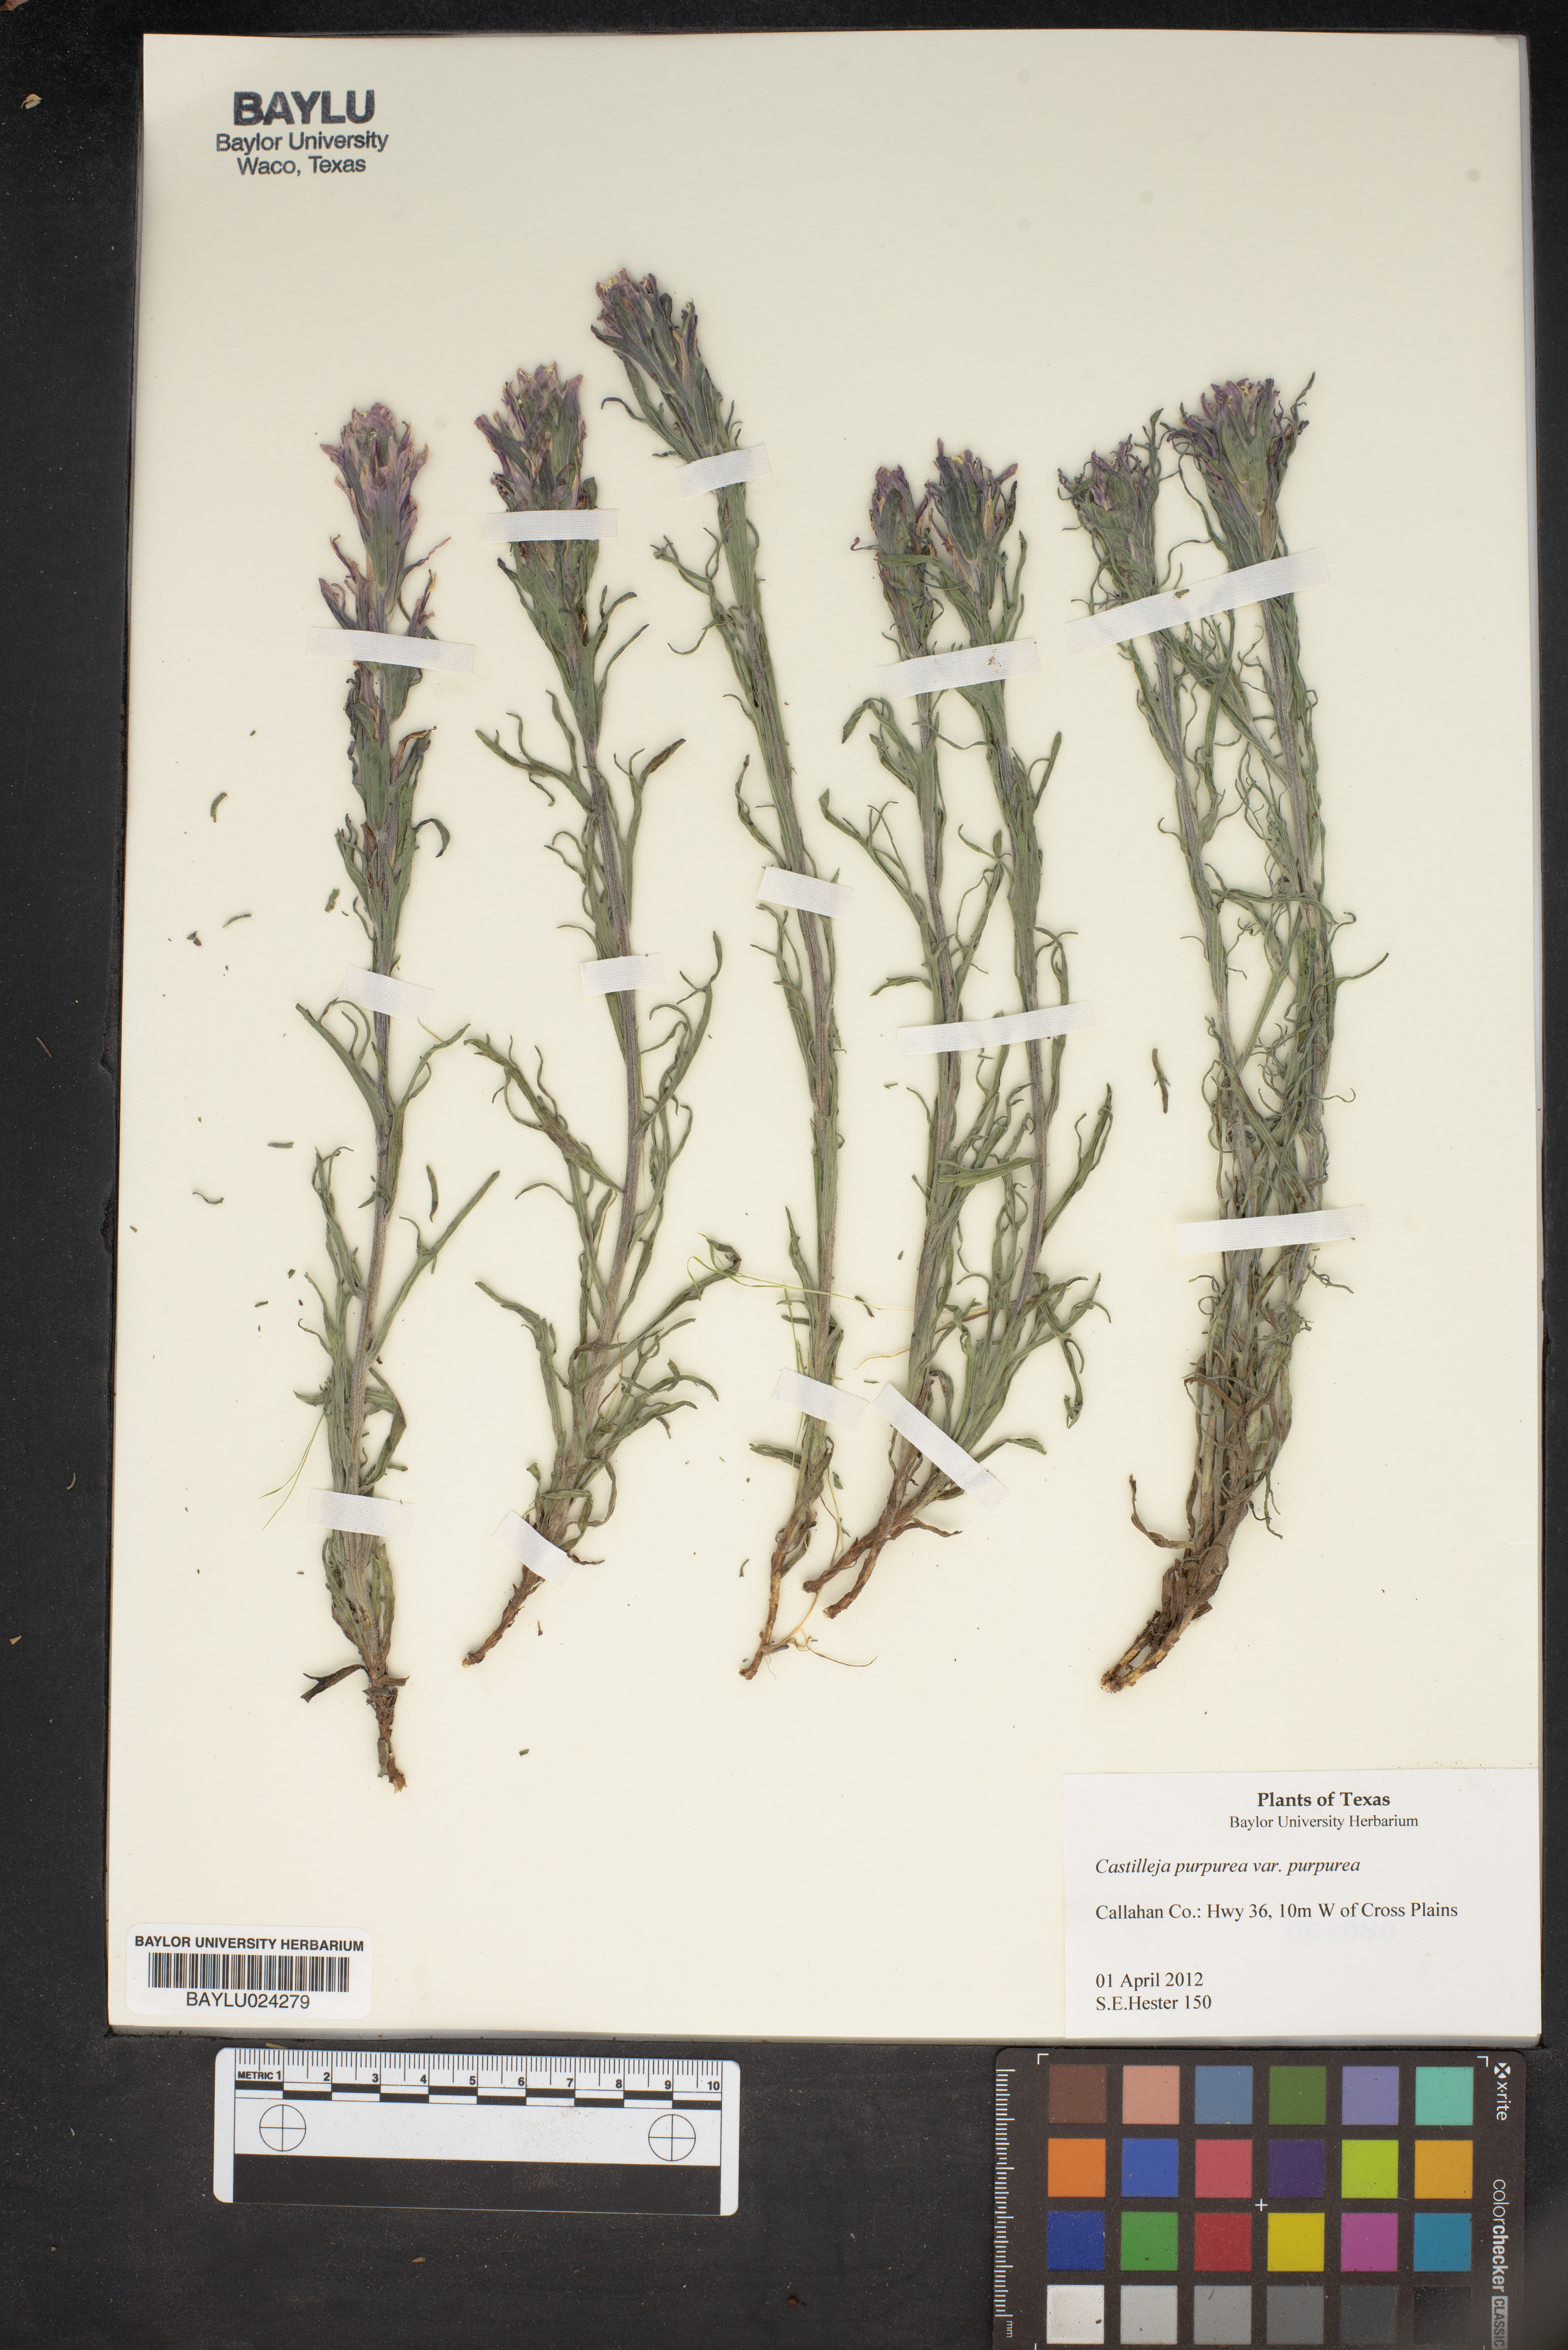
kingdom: Plantae
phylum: Tracheophyta
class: Magnoliopsida
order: Lamiales
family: Orobanchaceae
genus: Castilleja
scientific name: Castilleja purpurea
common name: Plains paintbrush
